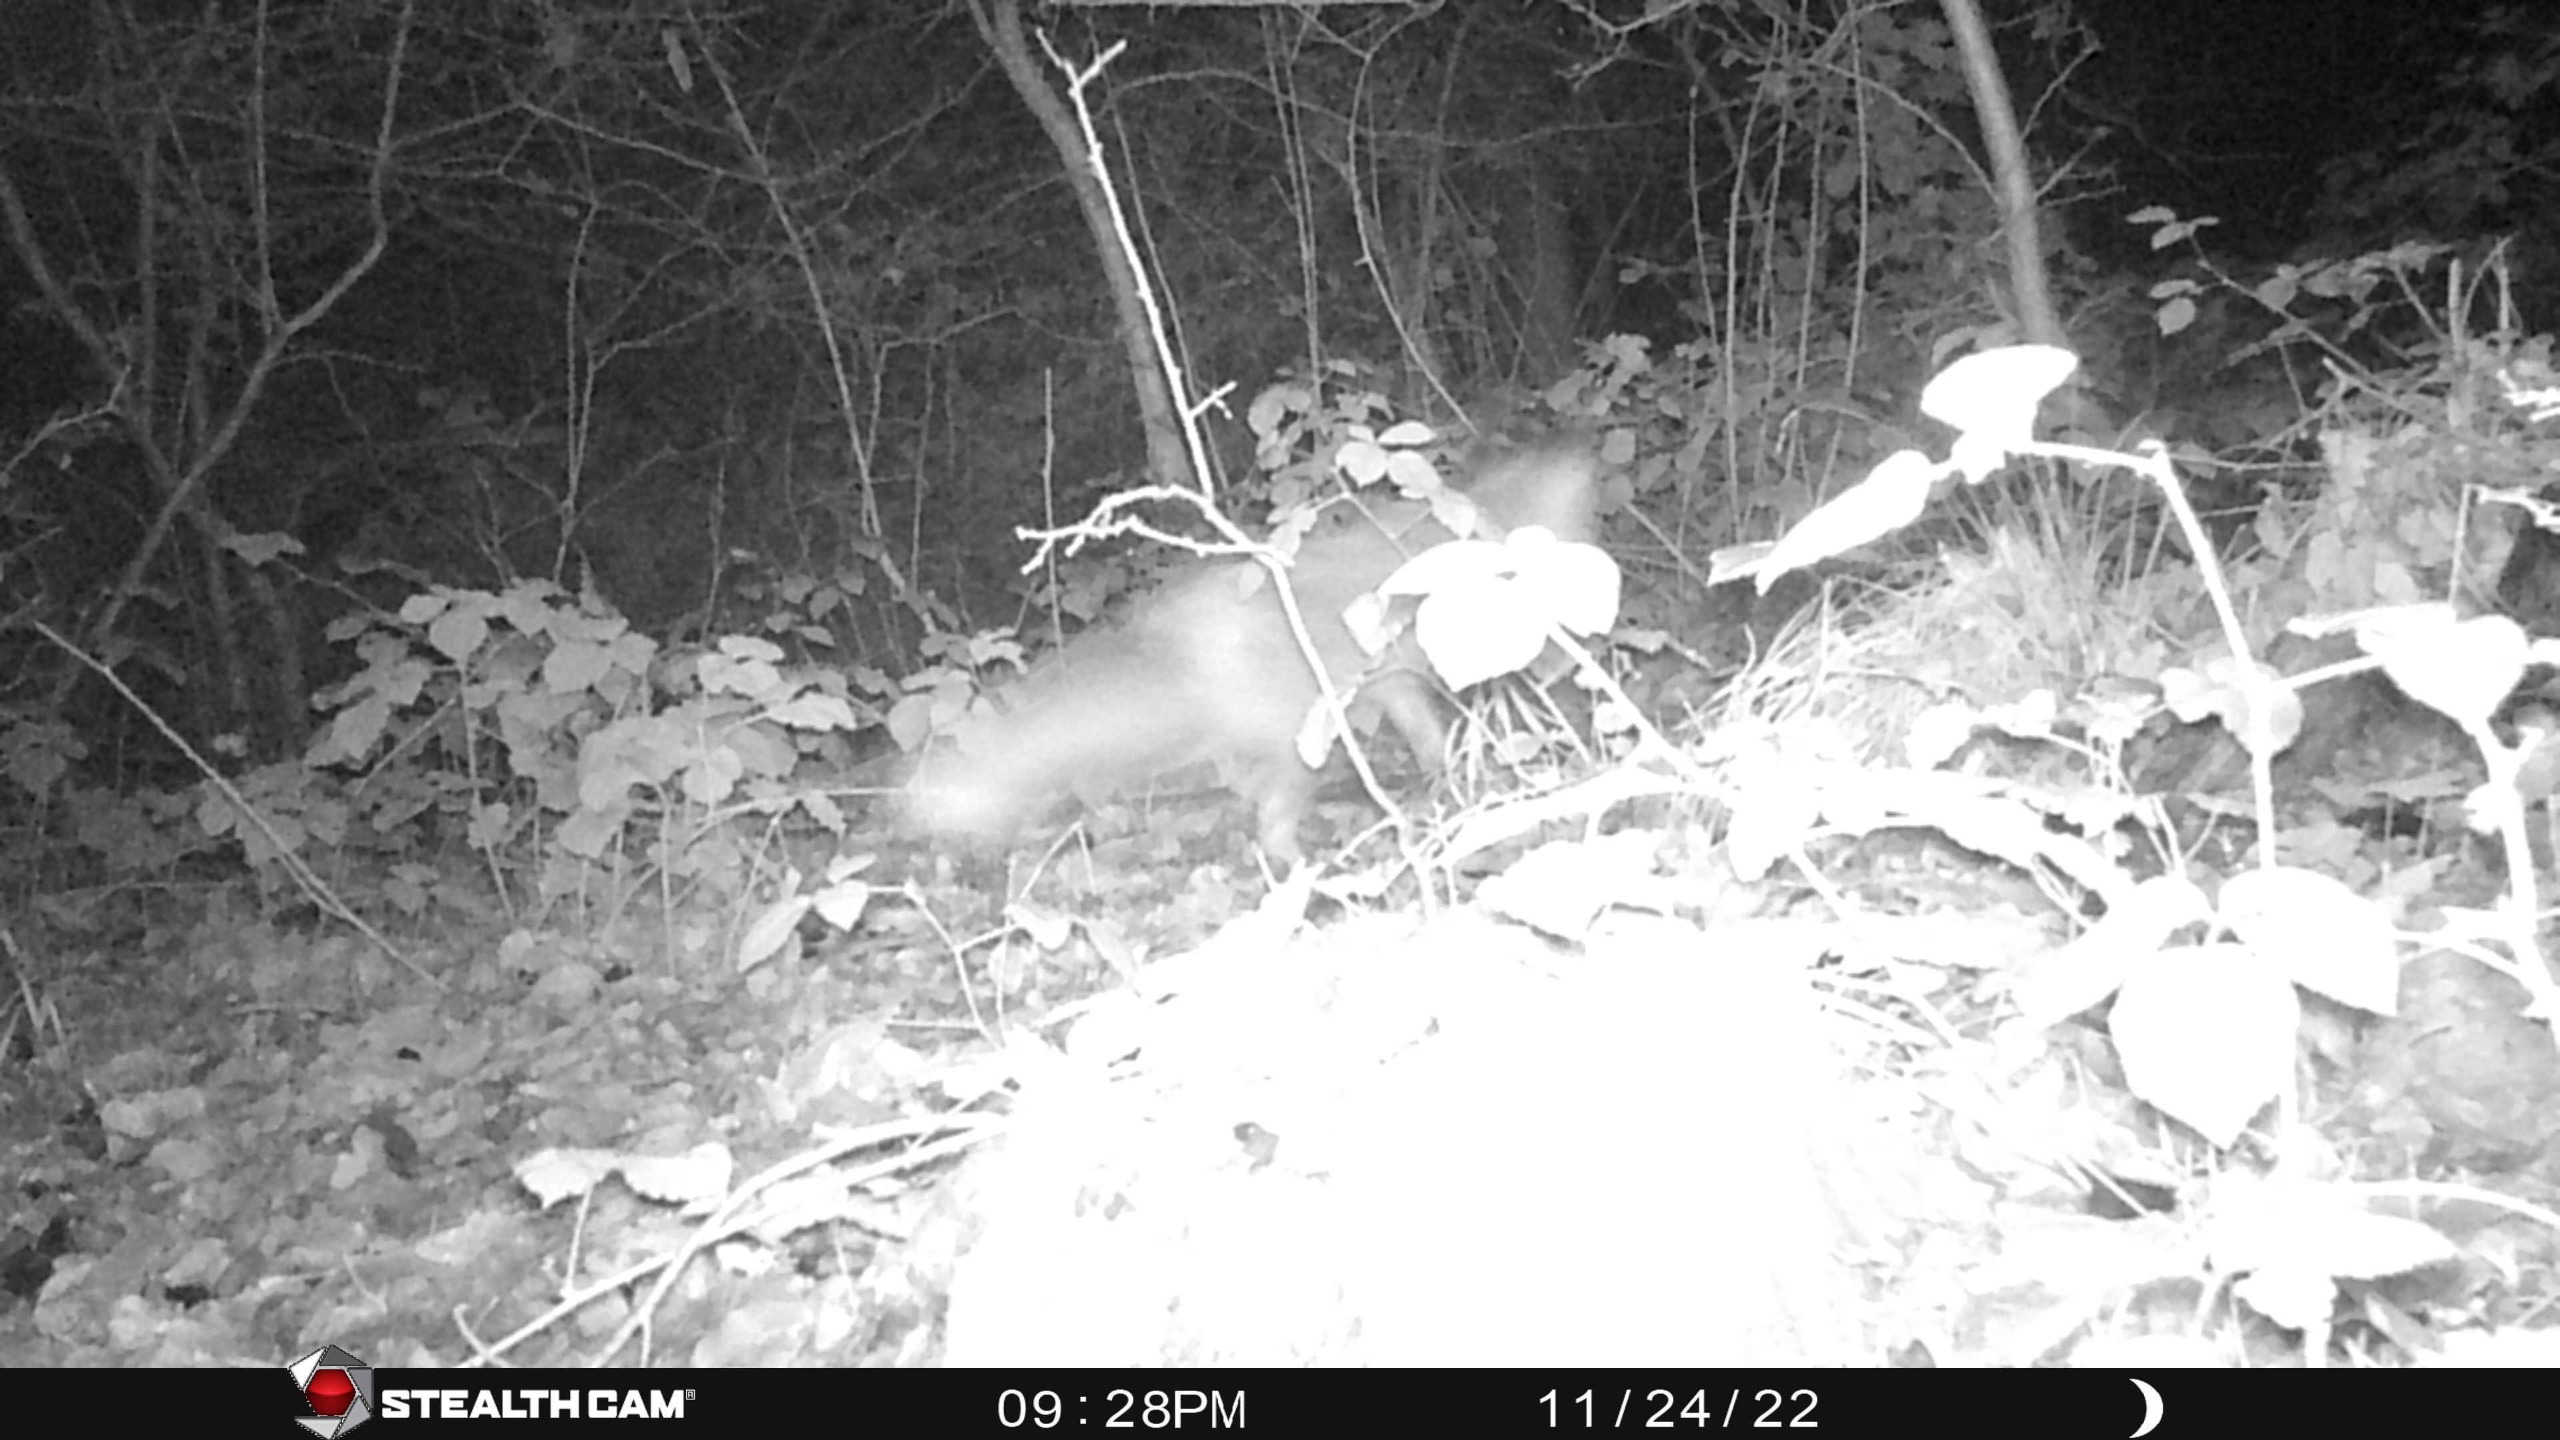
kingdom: Animalia
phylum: Chordata
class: Mammalia
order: Carnivora
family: Canidae
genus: Vulpes
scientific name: Vulpes vulpes
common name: Ræv
